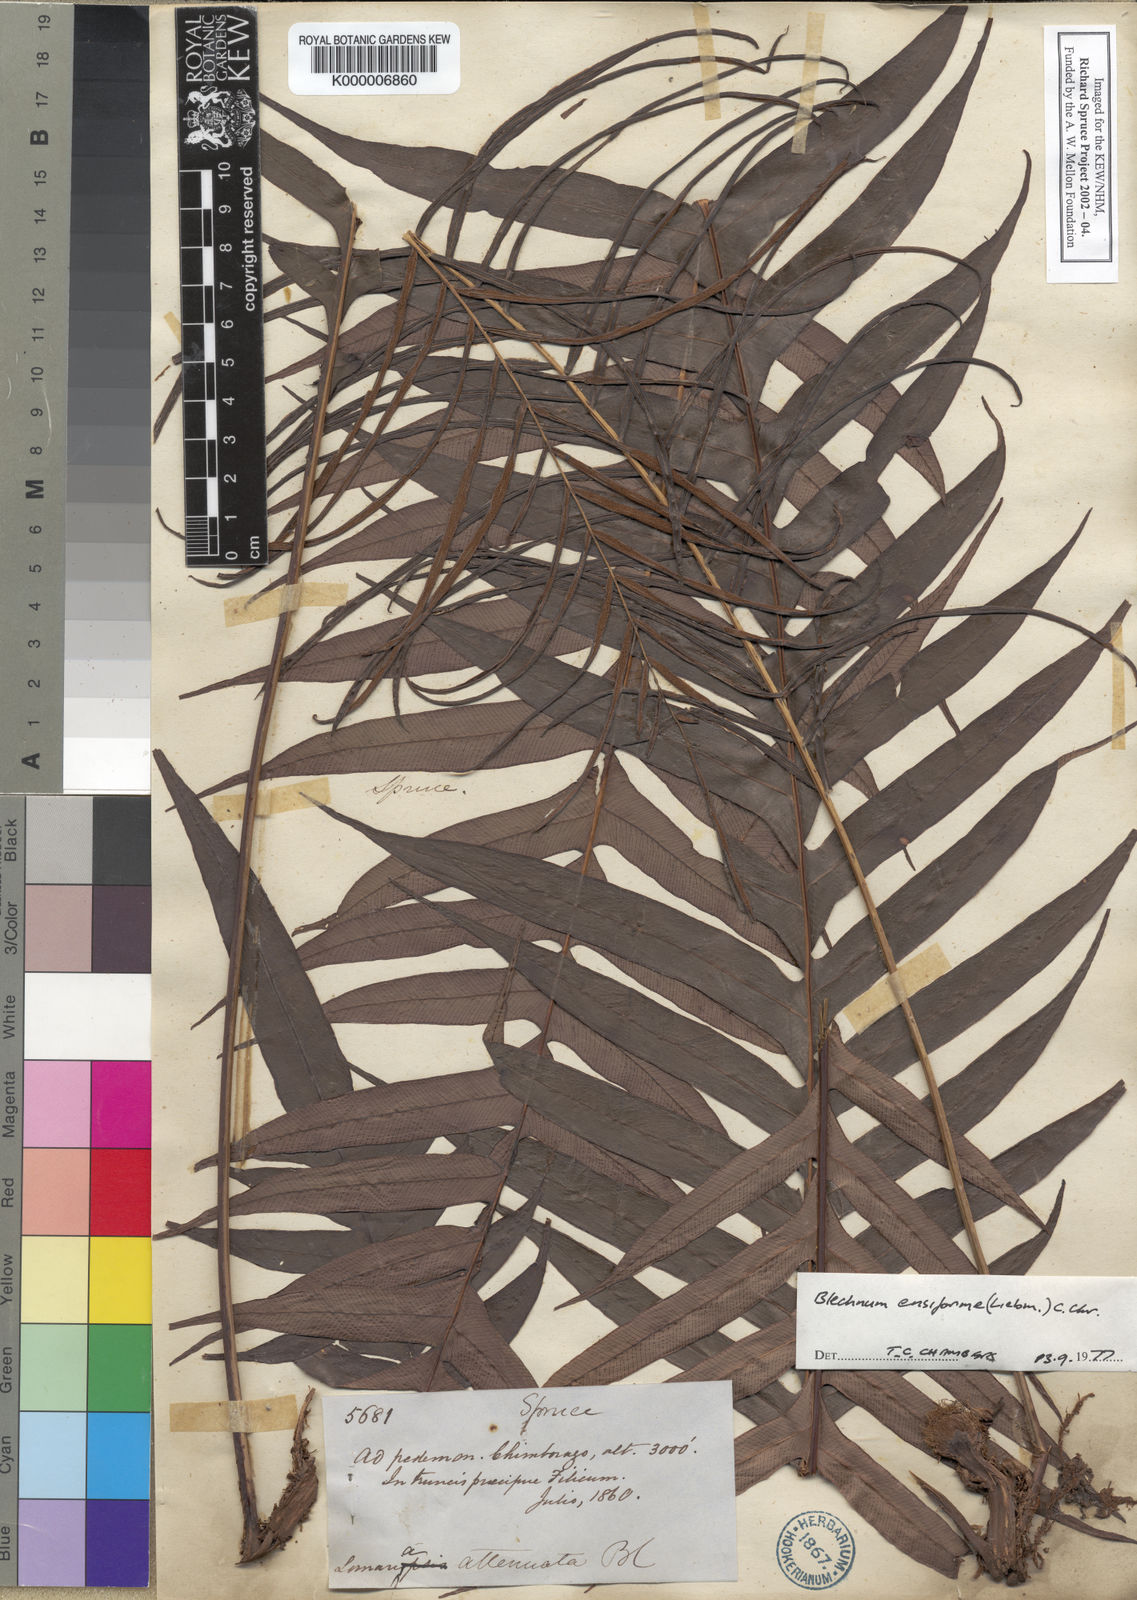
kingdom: Plantae
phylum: Tracheophyta
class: Polypodiopsida
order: Polypodiales
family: Blechnaceae
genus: Lomaridium
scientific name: Lomaridium ensiforme
